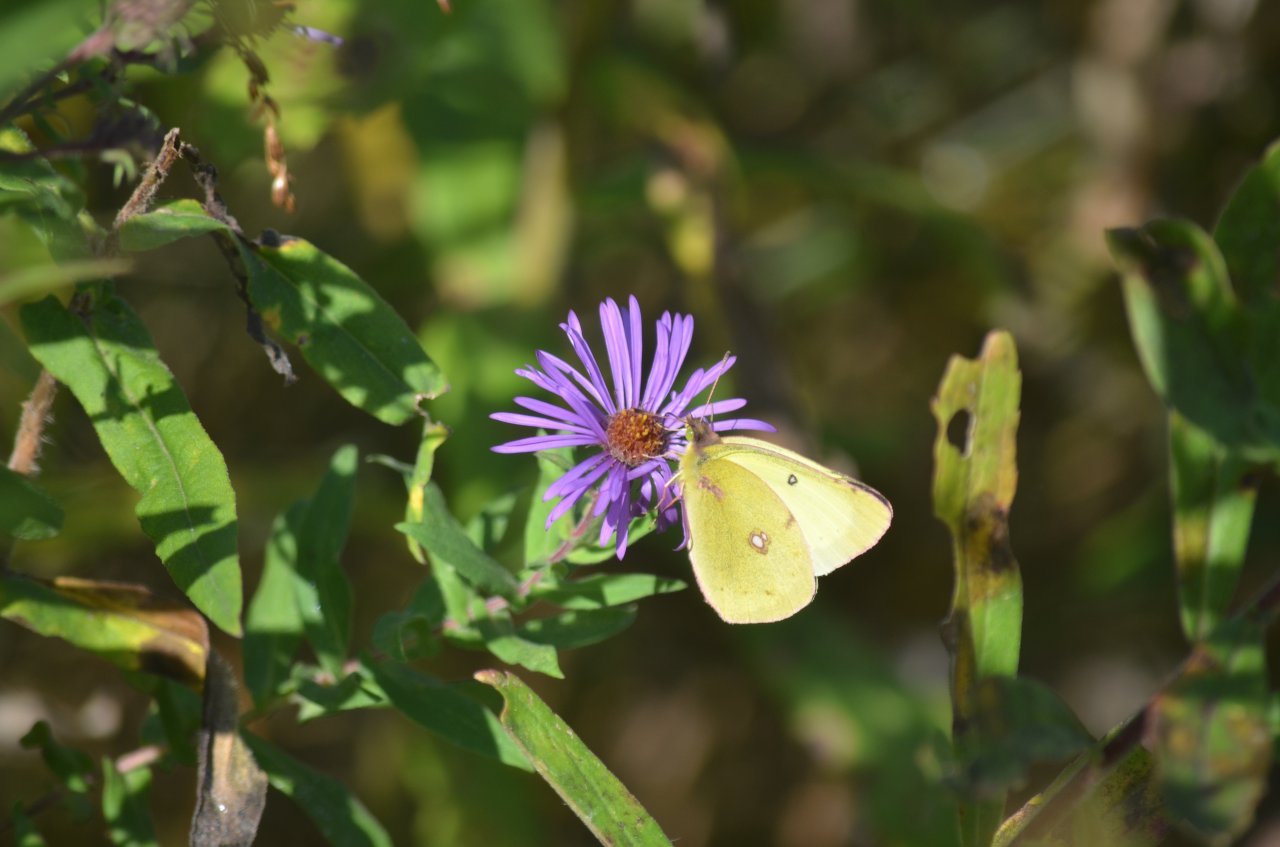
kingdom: Animalia
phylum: Arthropoda
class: Insecta
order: Lepidoptera
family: Pieridae
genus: Colias
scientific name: Colias philodice
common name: Clouded Sulphur
